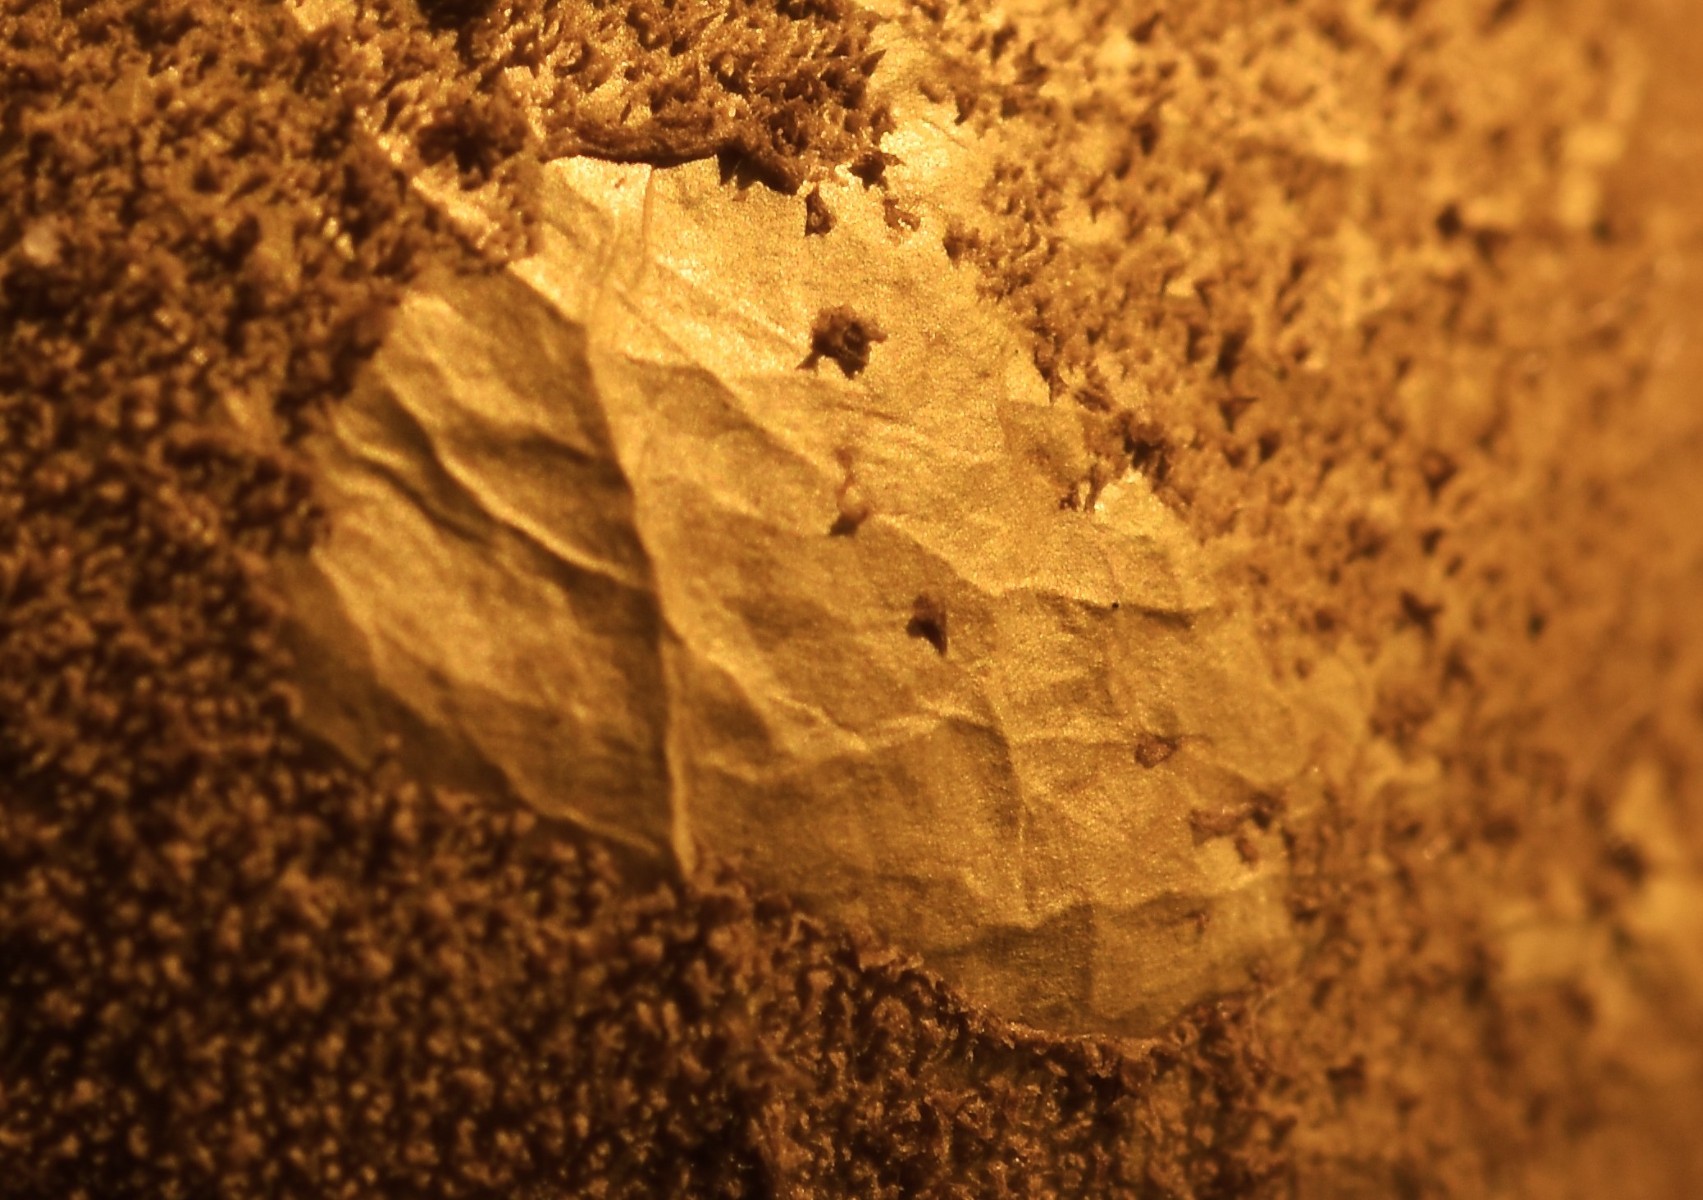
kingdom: Fungi
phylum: Basidiomycota
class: Agaricomycetes
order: Agaricales
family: Lycoperdaceae
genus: Lycoperdon
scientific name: Lycoperdon umbrinum
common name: umbrabrun støvbold
